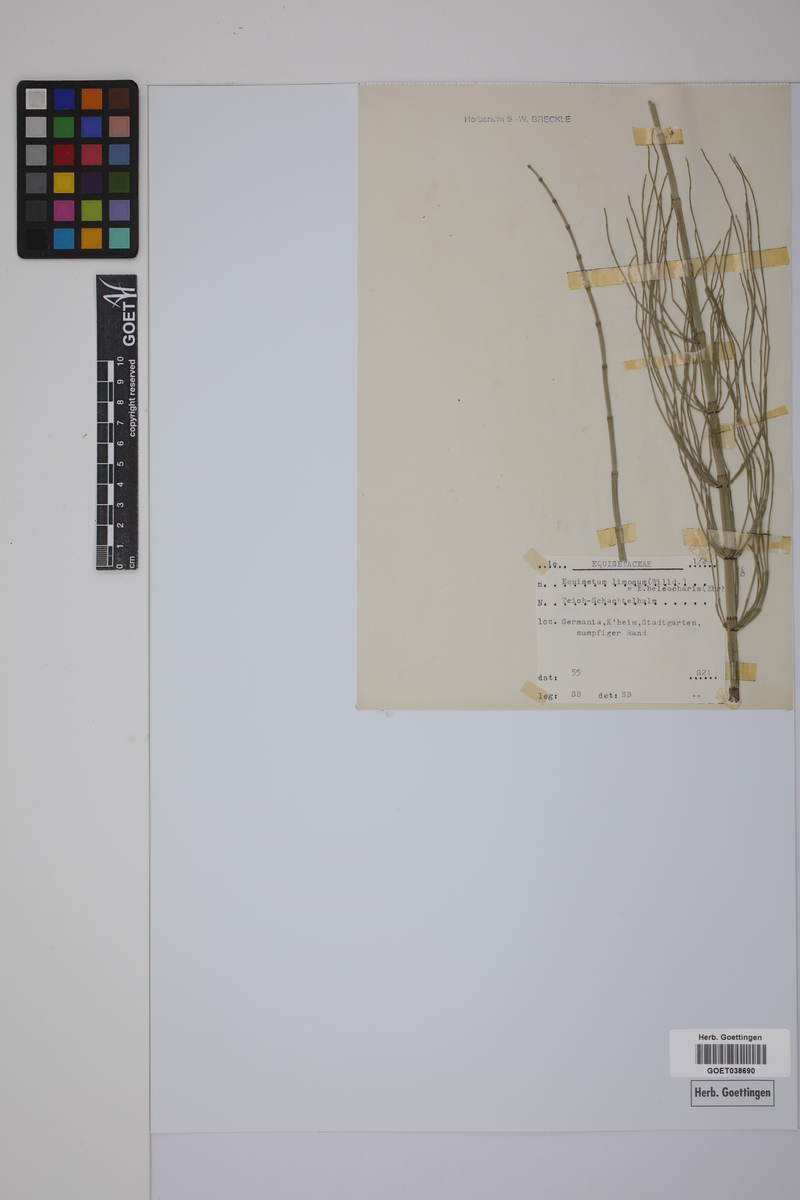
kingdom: Plantae
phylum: Tracheophyta
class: Polypodiopsida
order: Equisetales
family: Equisetaceae
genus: Equisetum
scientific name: Equisetum fluviatile
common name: Water horsetail
